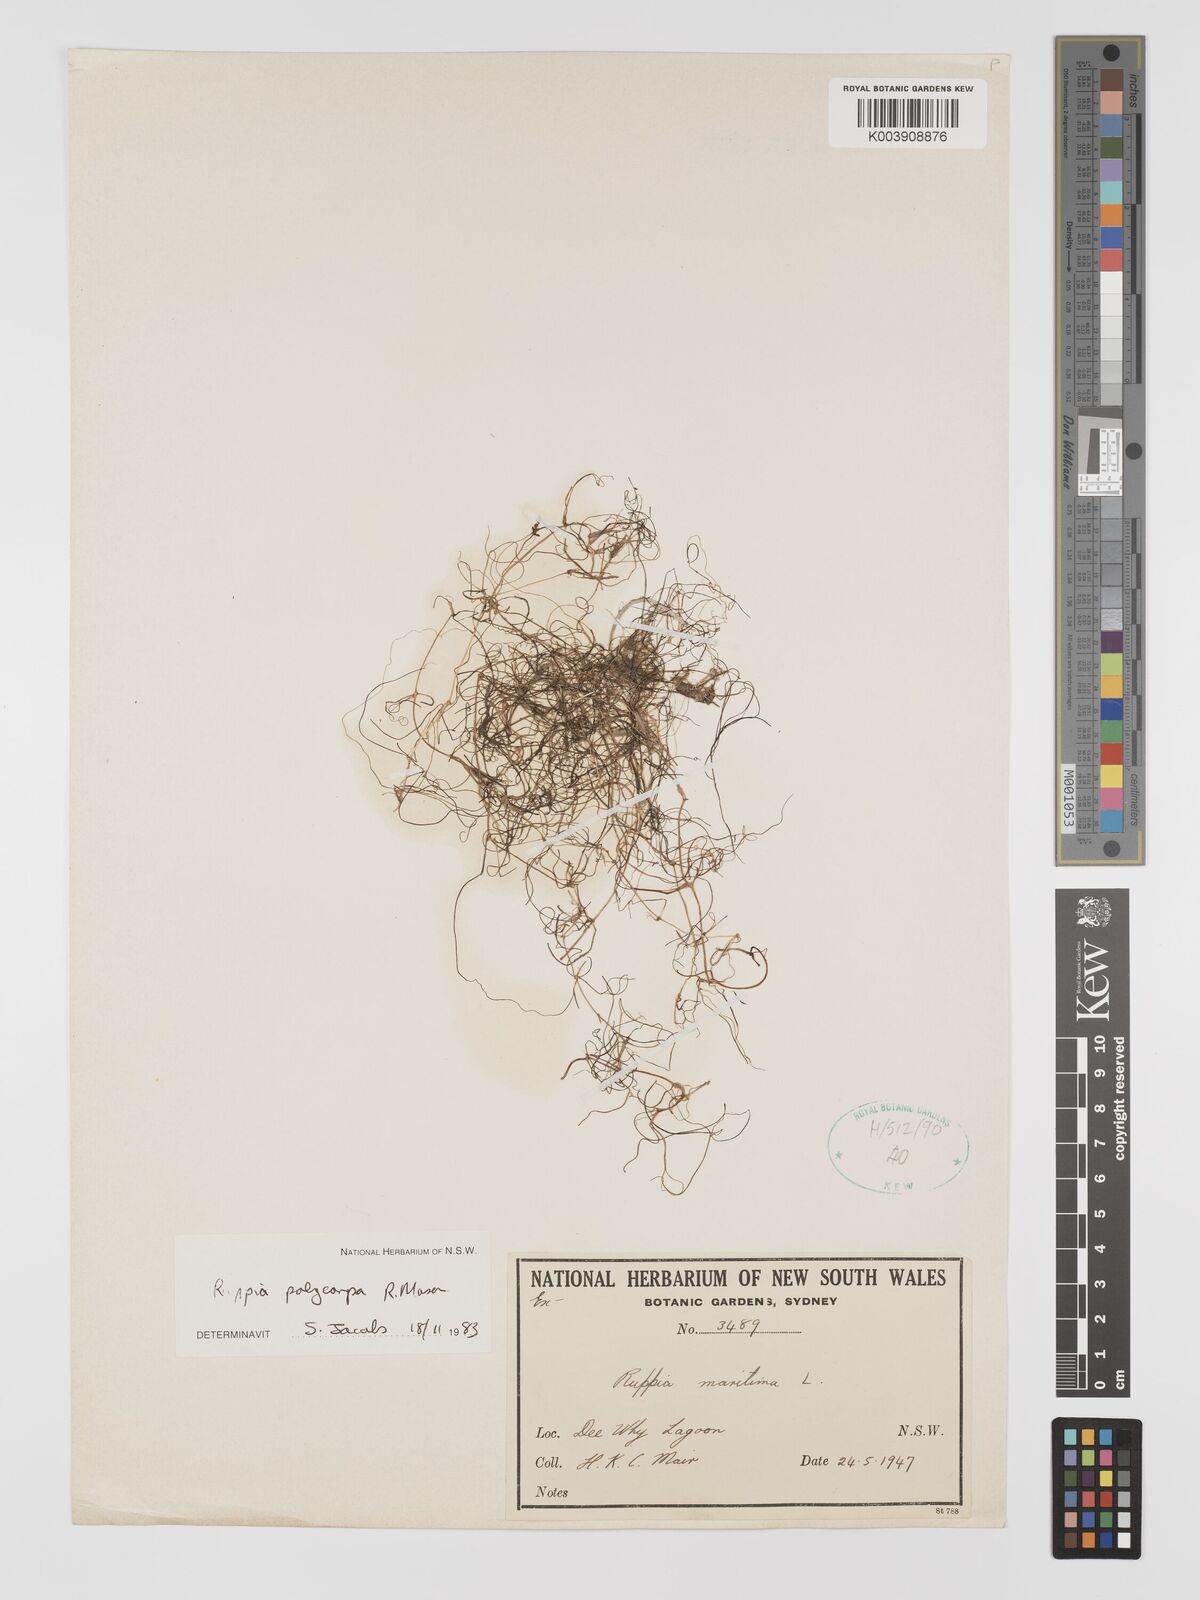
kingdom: Plantae
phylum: Tracheophyta
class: Liliopsida
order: Alismatales
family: Ruppiaceae
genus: Ruppia
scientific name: Ruppia polycarpa
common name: Species code: rp
